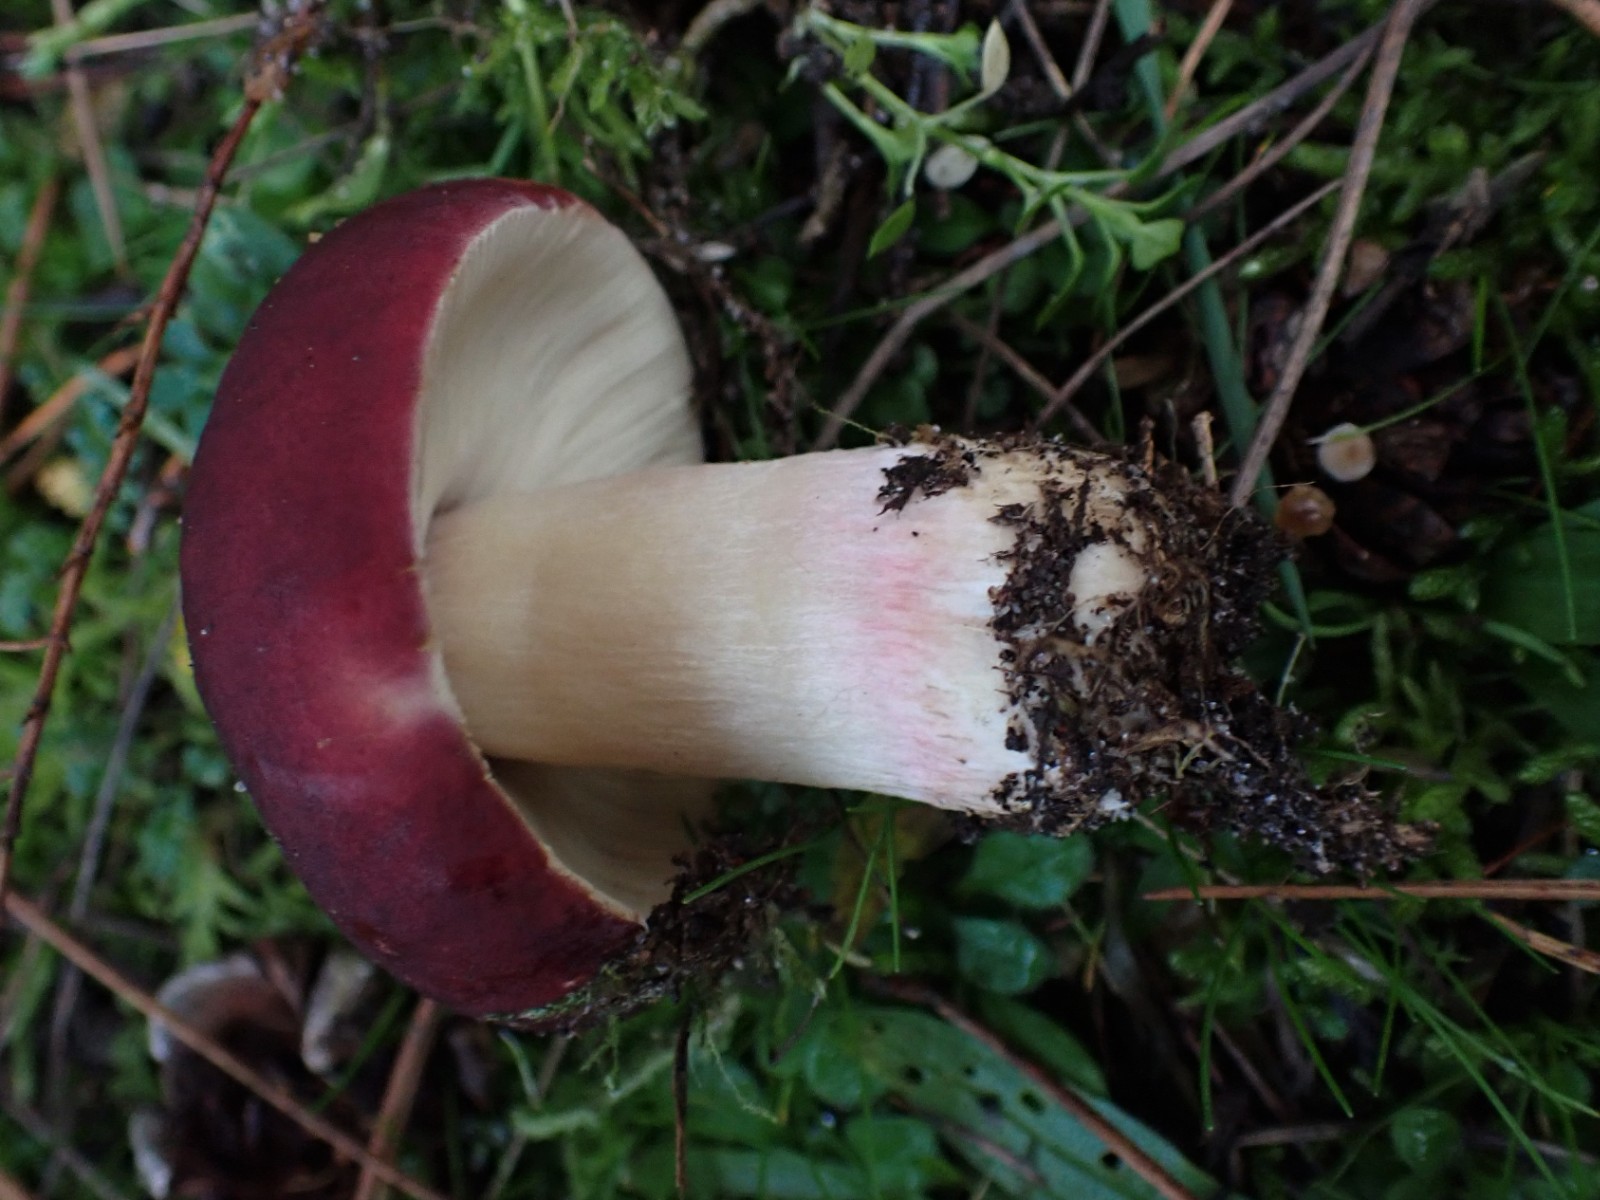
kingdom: Fungi
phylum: Basidiomycota
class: Agaricomycetes
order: Russulales
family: Russulaceae
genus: Russula
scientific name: Russula xerampelina
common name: hummer-skørhat
